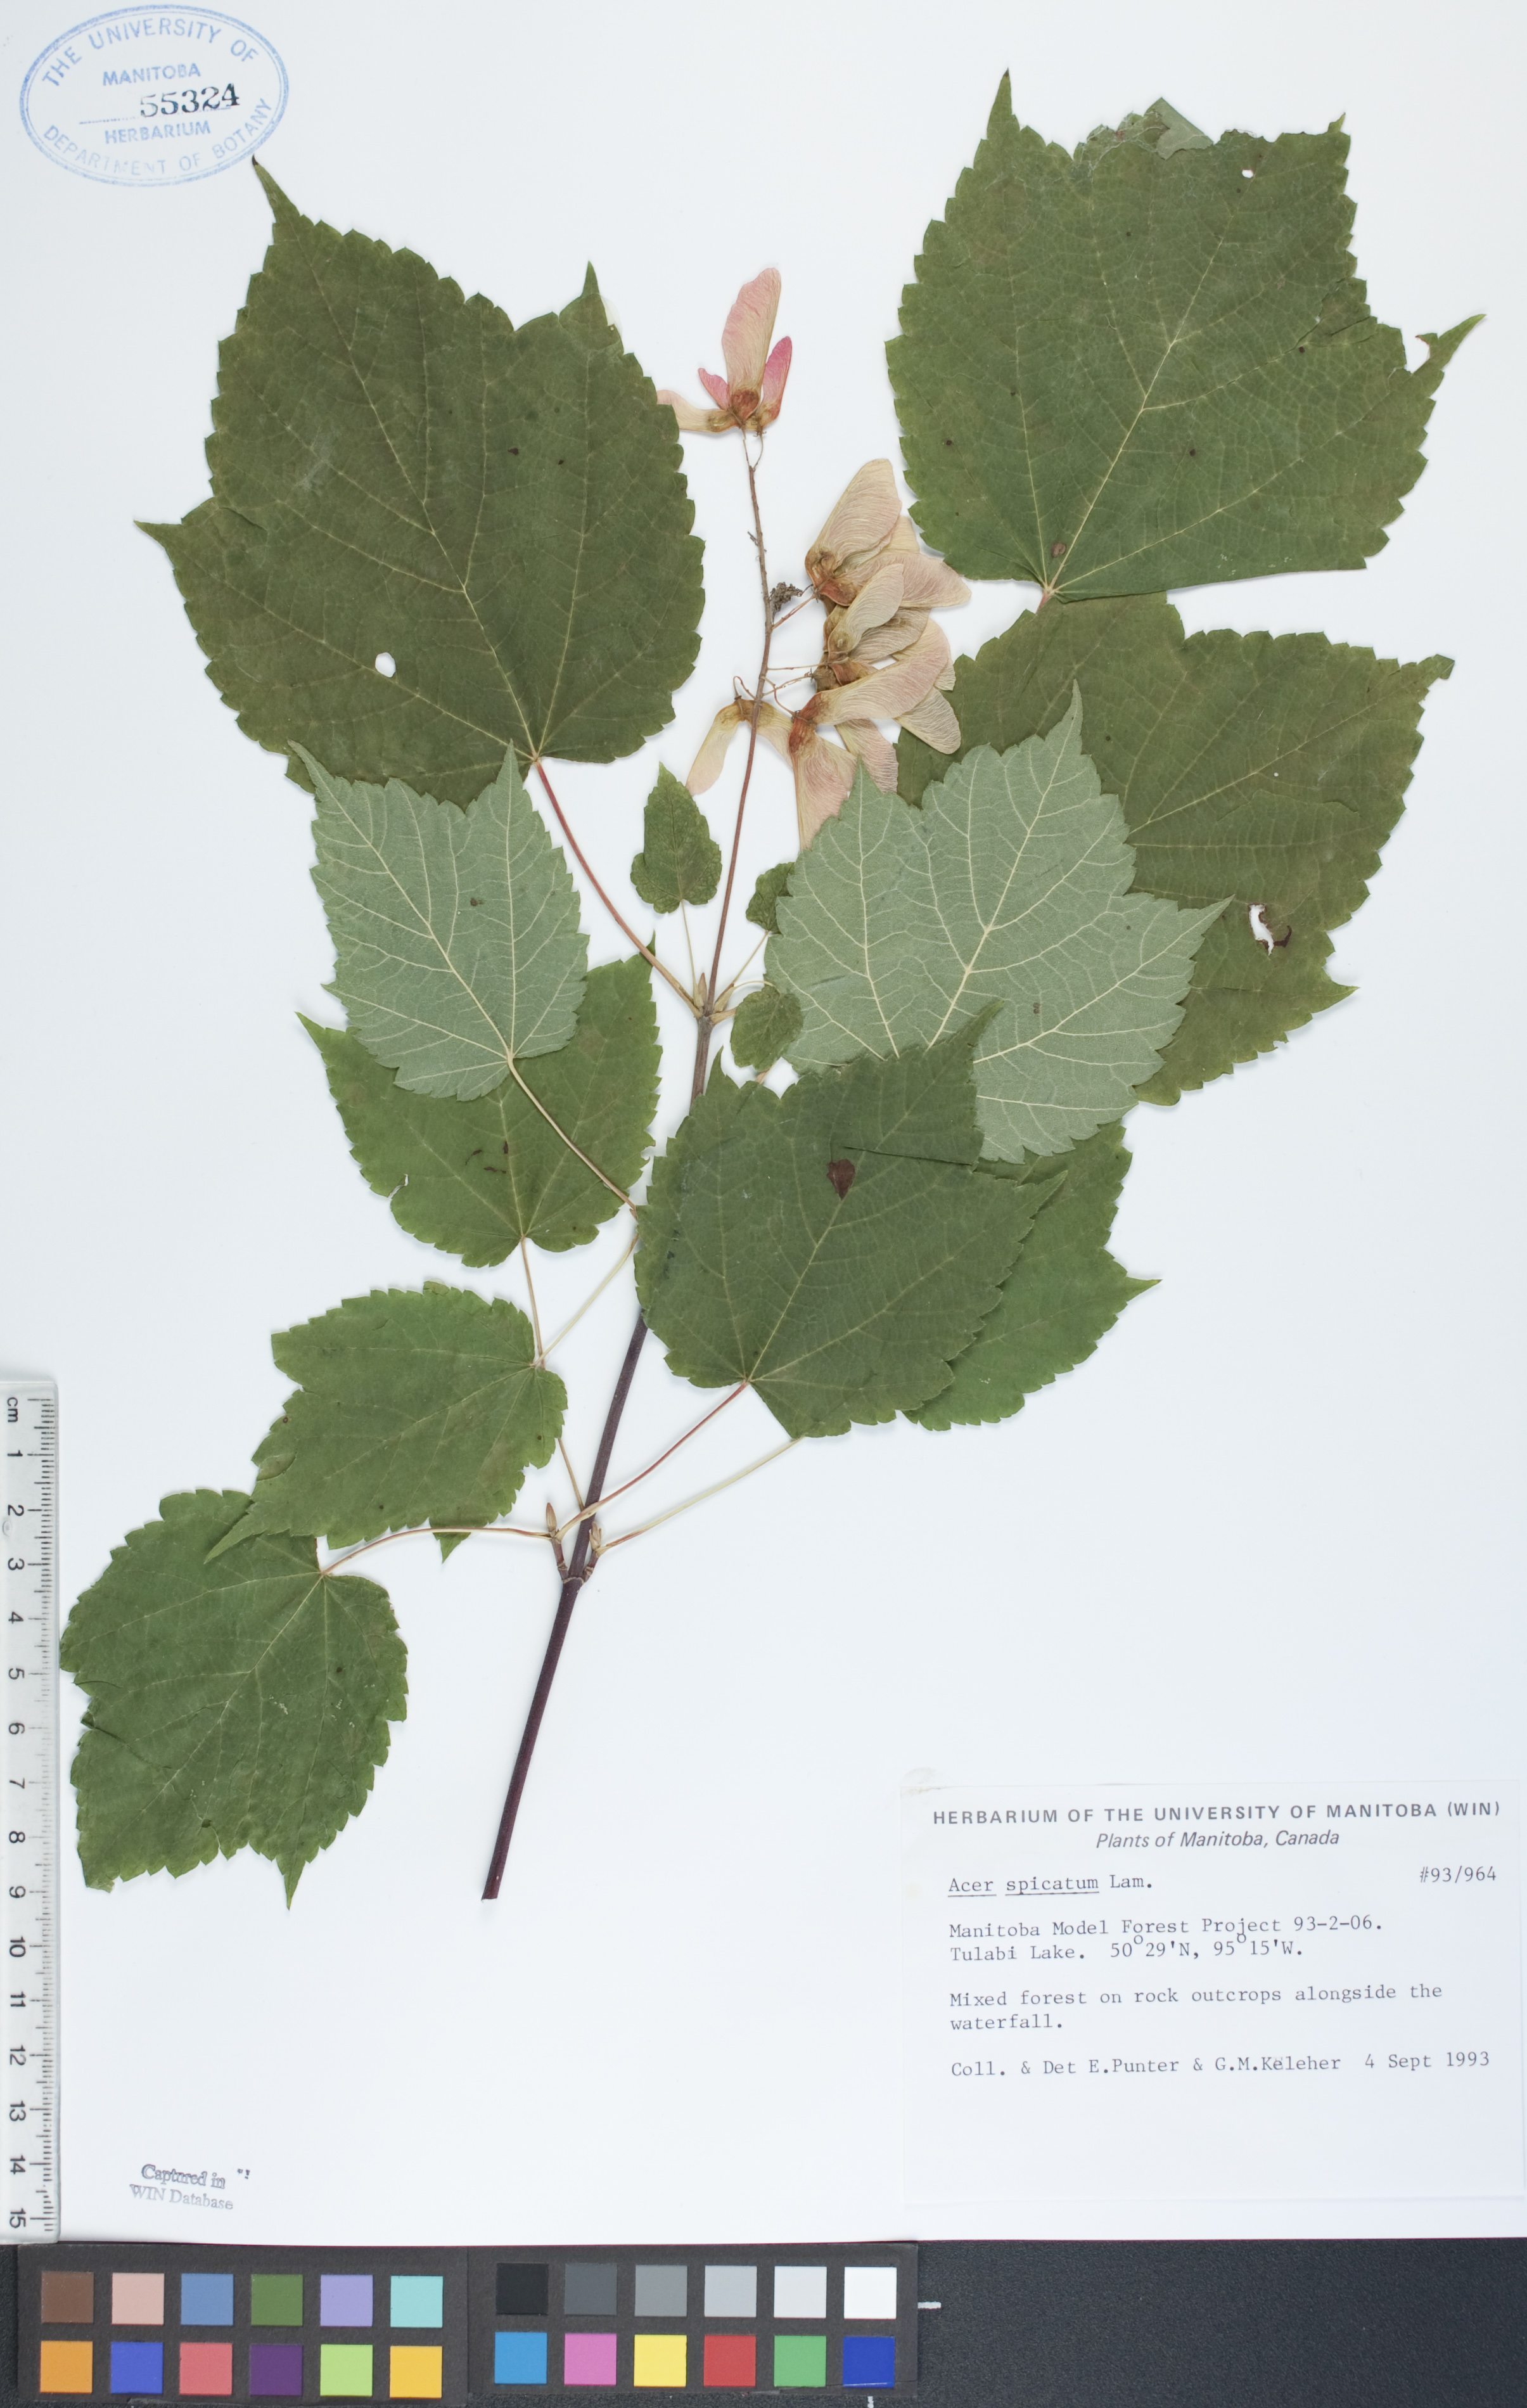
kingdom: Plantae
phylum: Tracheophyta
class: Magnoliopsida
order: Sapindales
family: Sapindaceae
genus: Acer
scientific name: Acer spicatum
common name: Mountain maple
